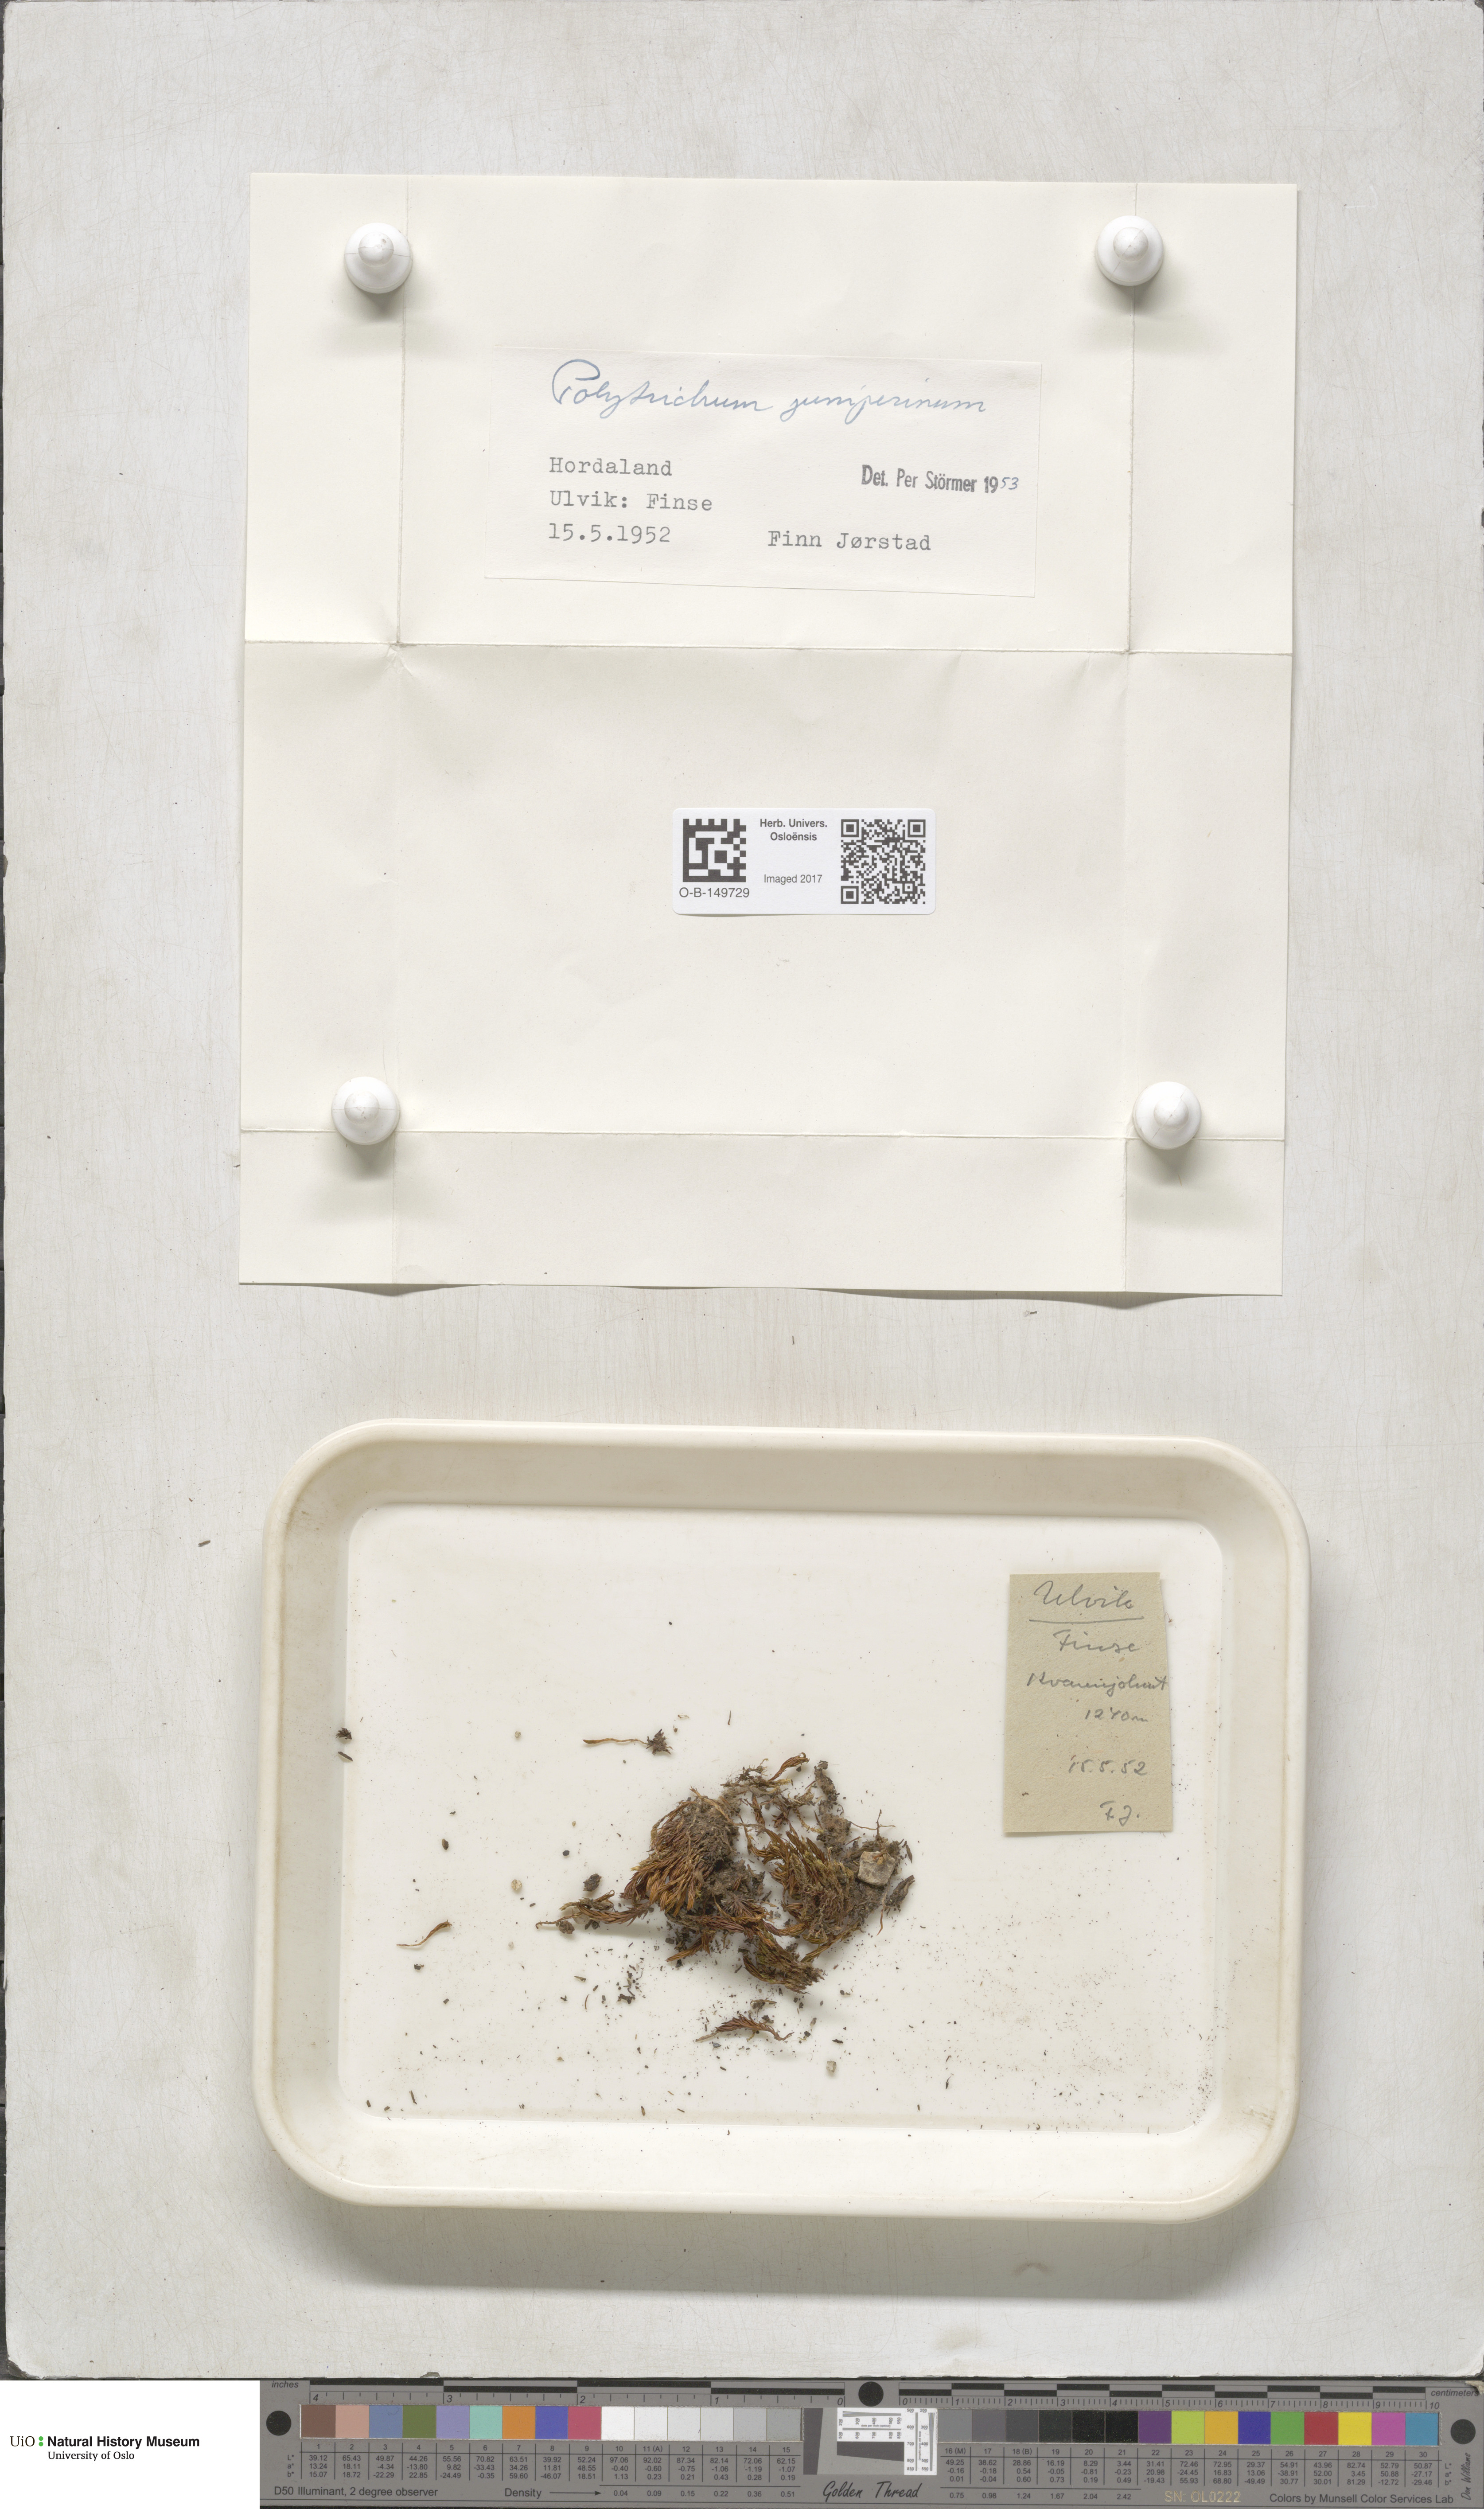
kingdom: Plantae
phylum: Bryophyta
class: Polytrichopsida
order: Polytrichales
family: Polytrichaceae
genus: Polytrichum
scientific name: Polytrichum juniperinum
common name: Juniper haircap moss
